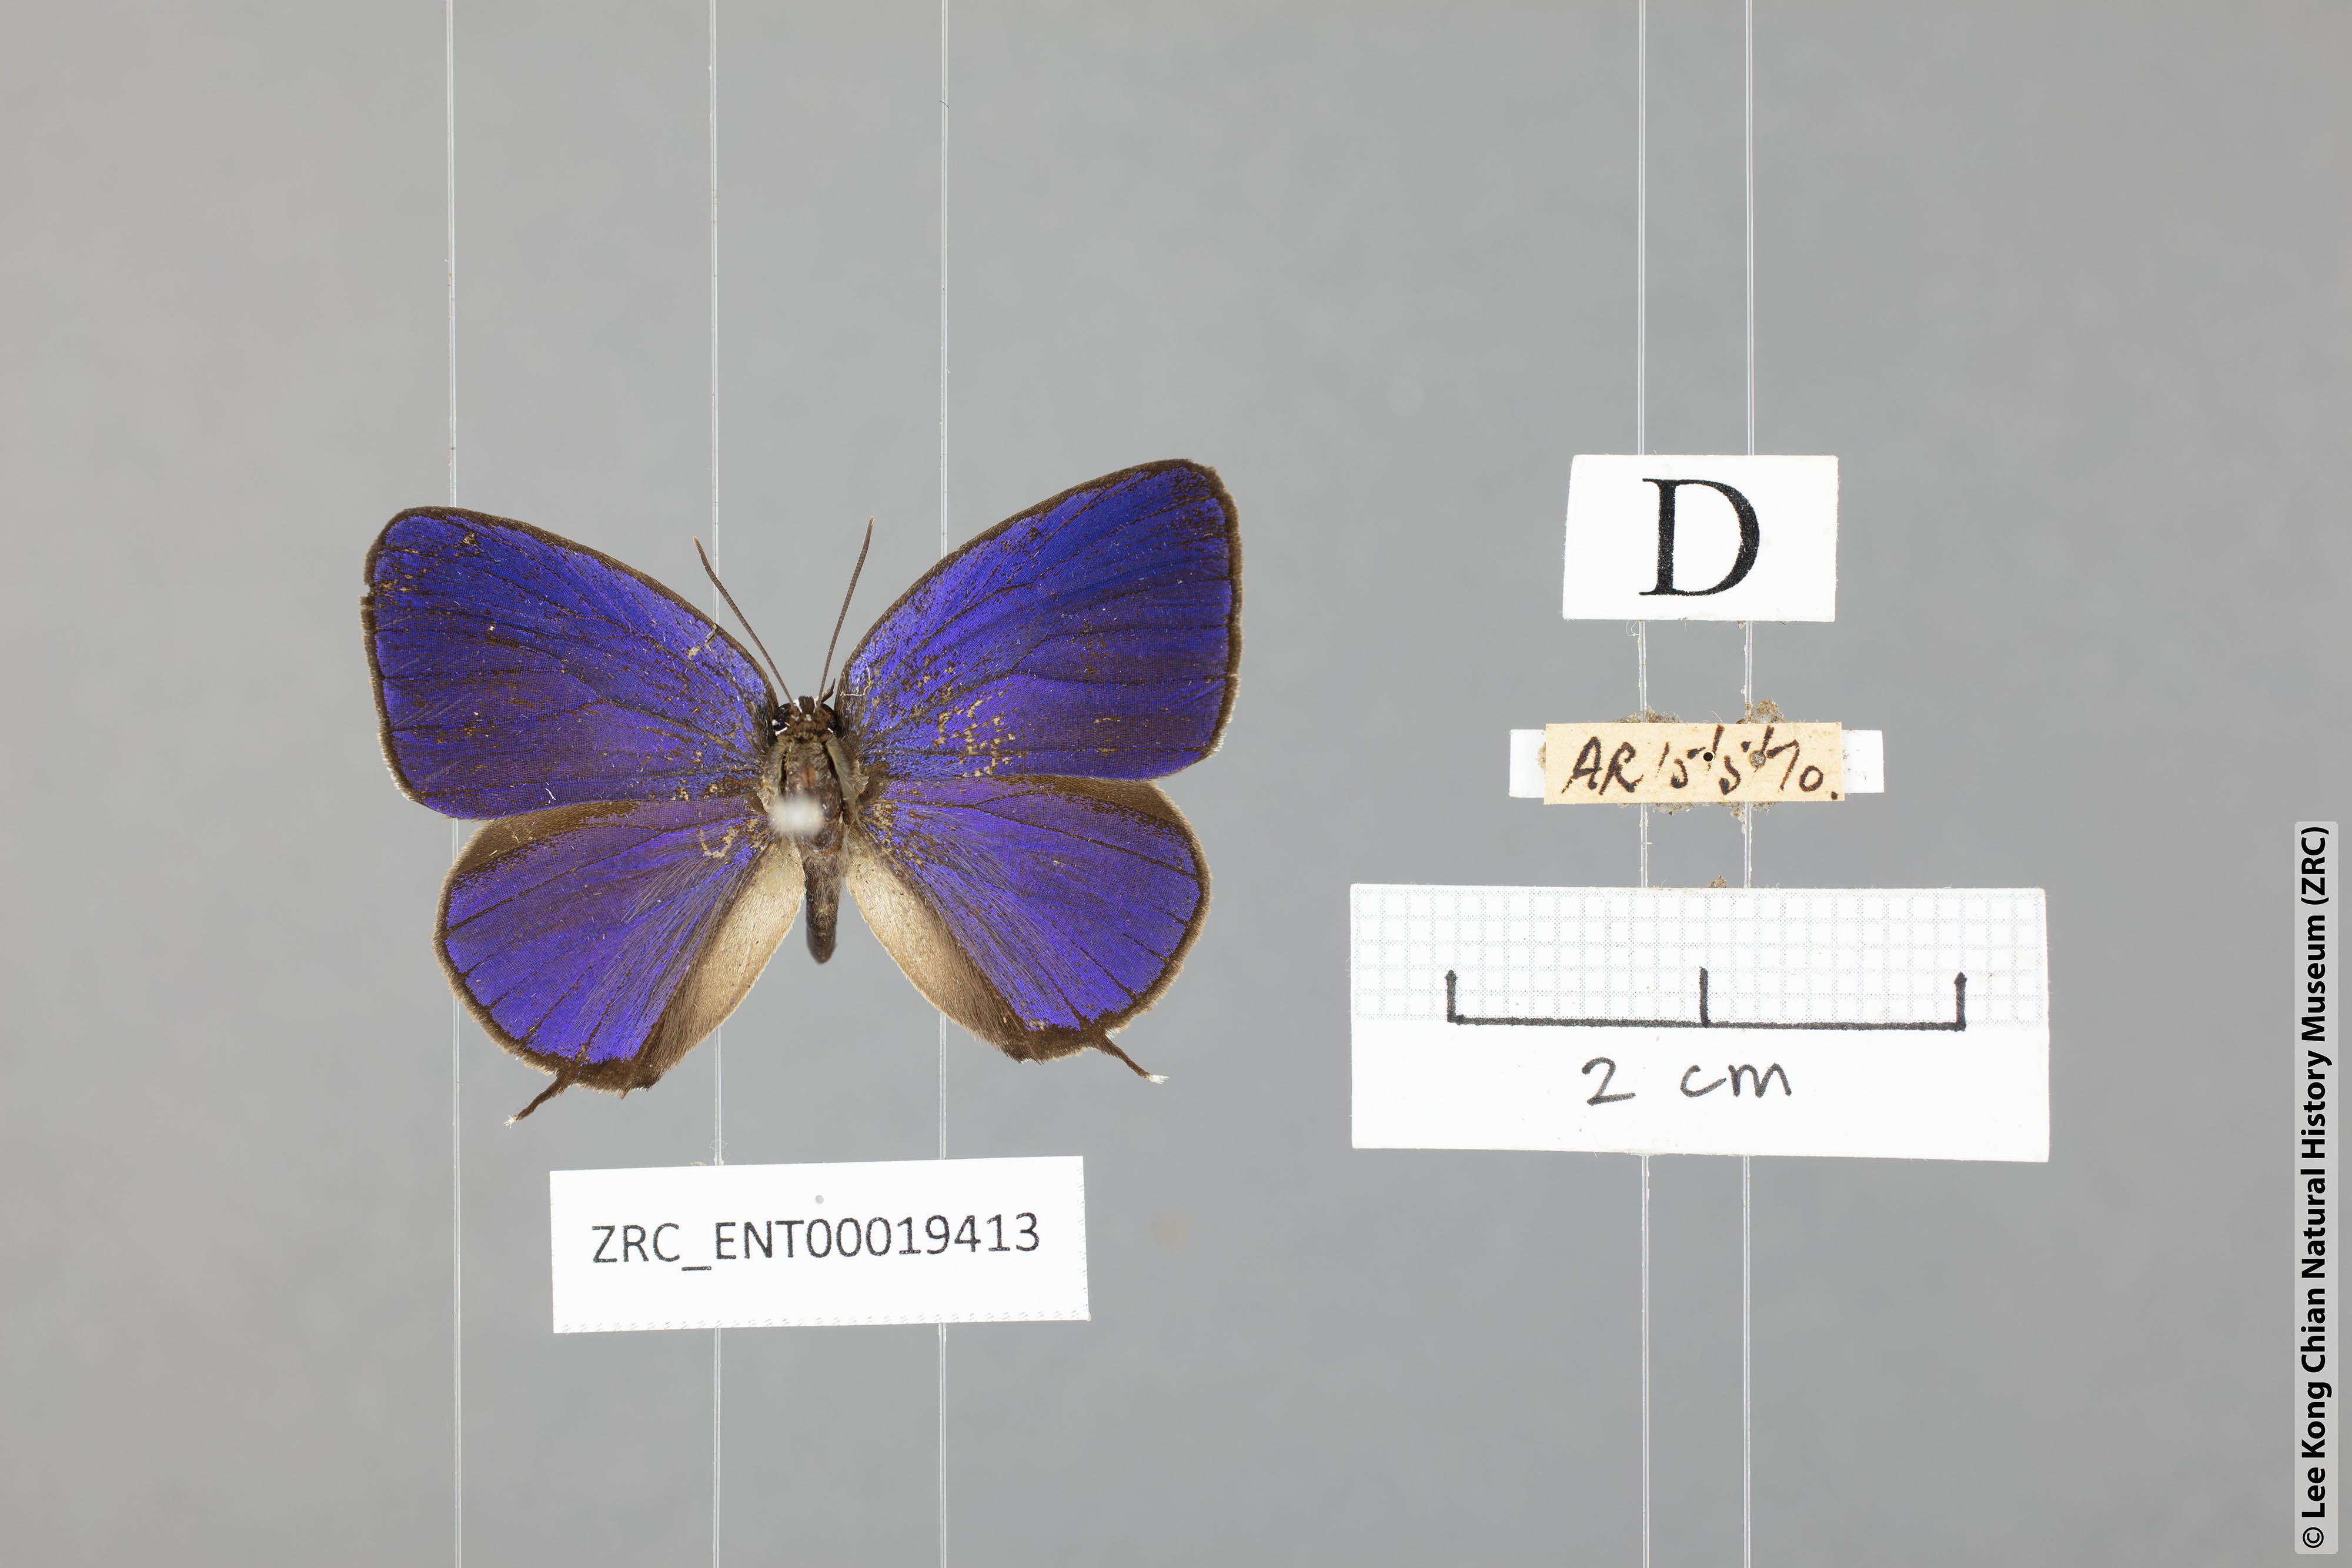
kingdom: Animalia
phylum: Arthropoda
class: Insecta
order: Lepidoptera
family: Lycaenidae
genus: Arhopala
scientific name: Arhopala elopura
